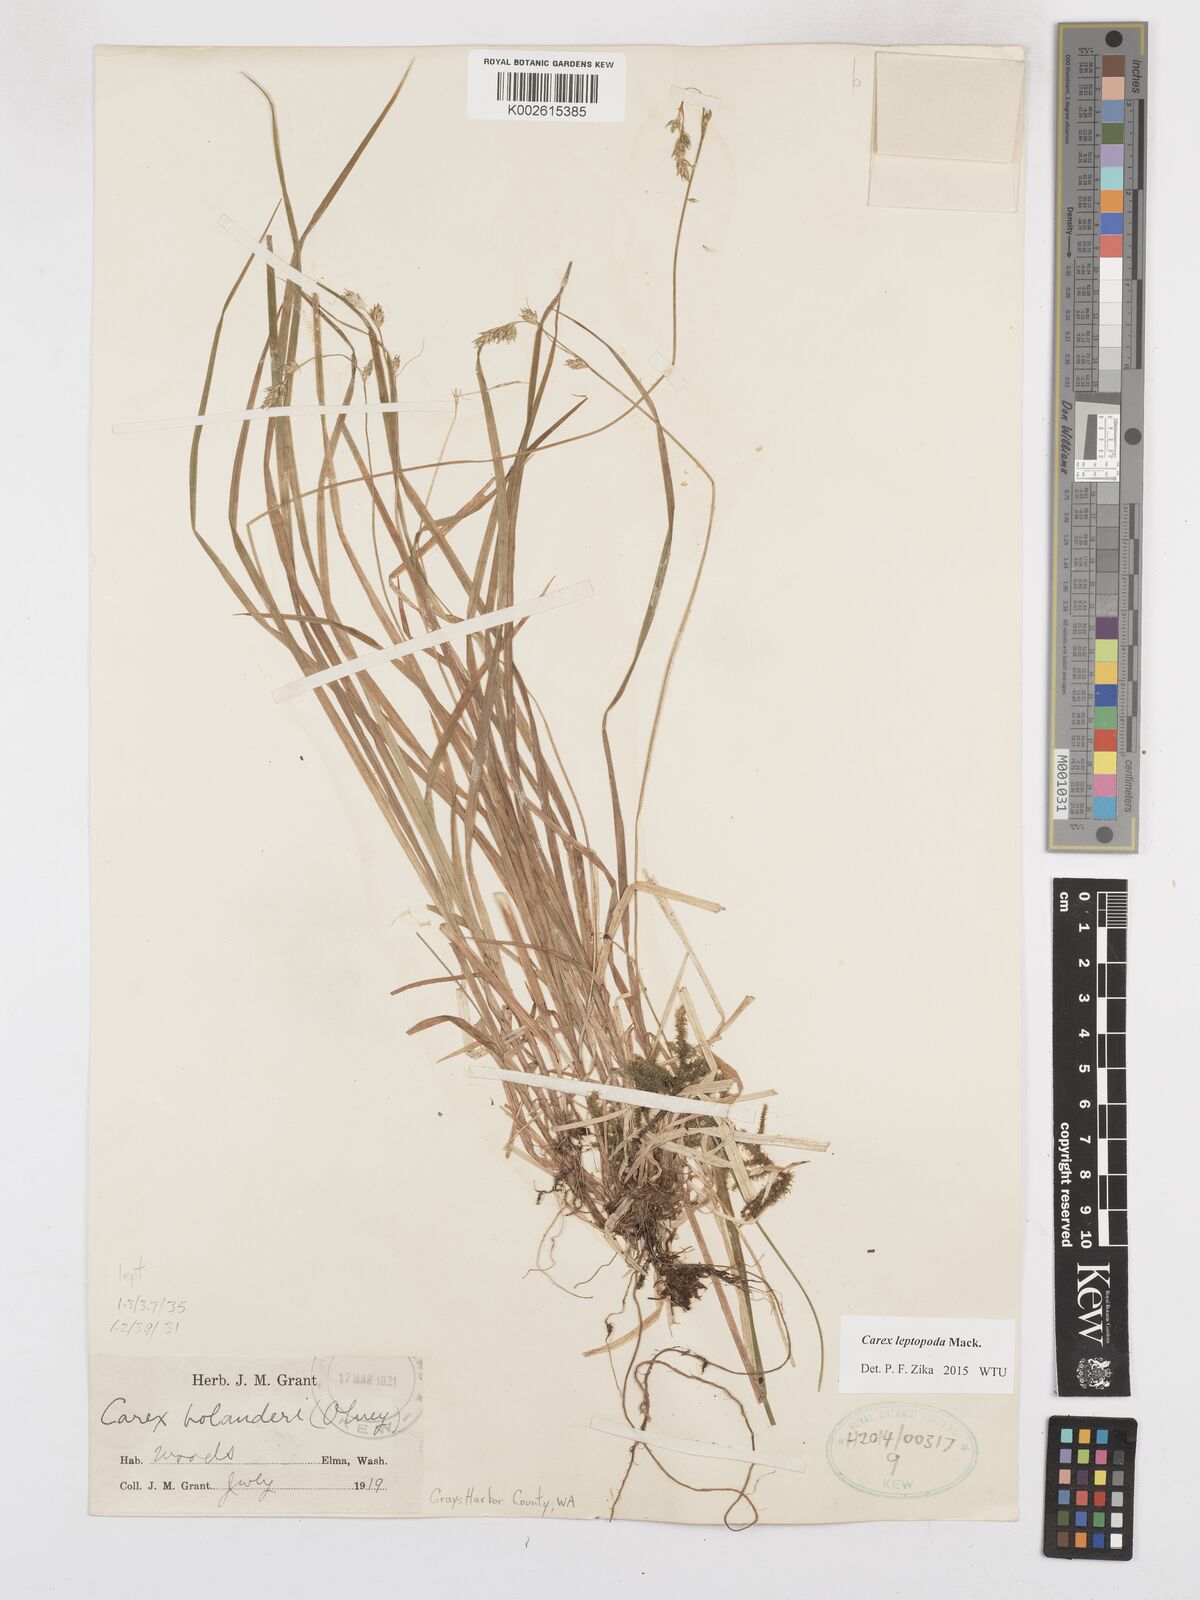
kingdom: Plantae
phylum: Tracheophyta
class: Liliopsida
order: Poales
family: Cyperaceae
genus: Carex
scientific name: Carex leptopoda
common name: Short-scale sedge
